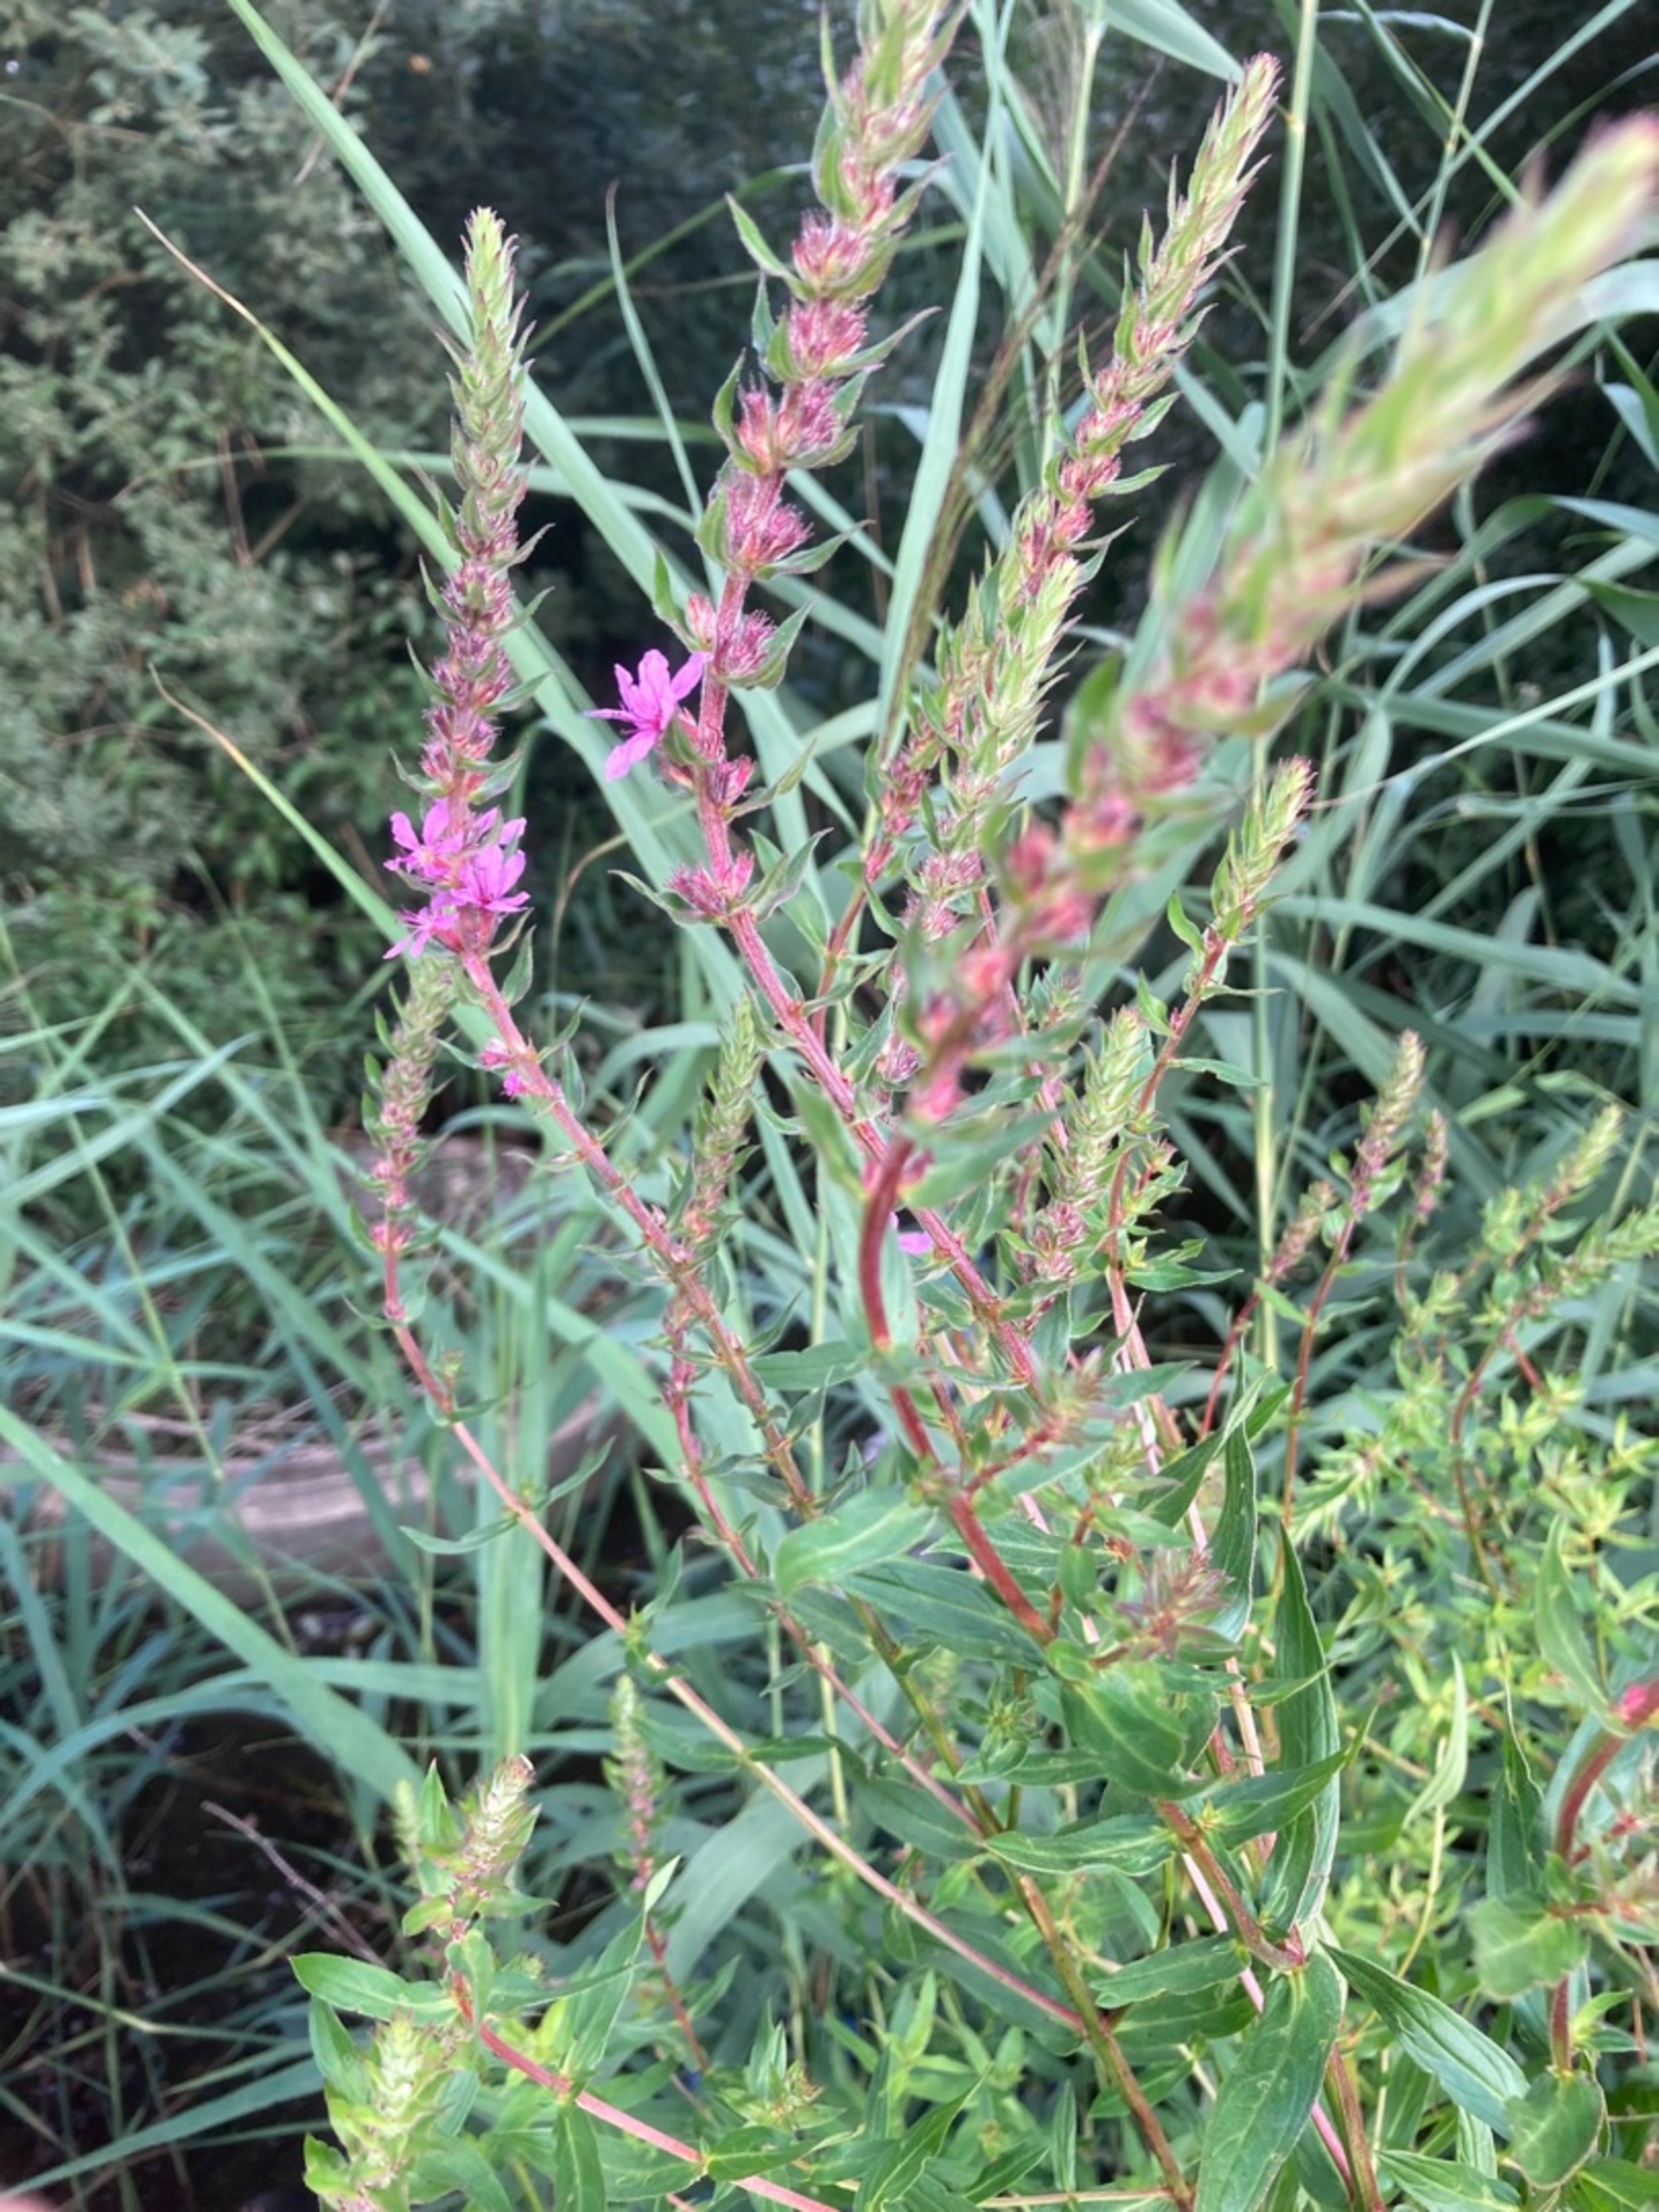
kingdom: Plantae
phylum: Tracheophyta
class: Magnoliopsida
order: Myrtales
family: Lythraceae
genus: Lythrum
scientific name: Lythrum salicaria
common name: Kattehale
